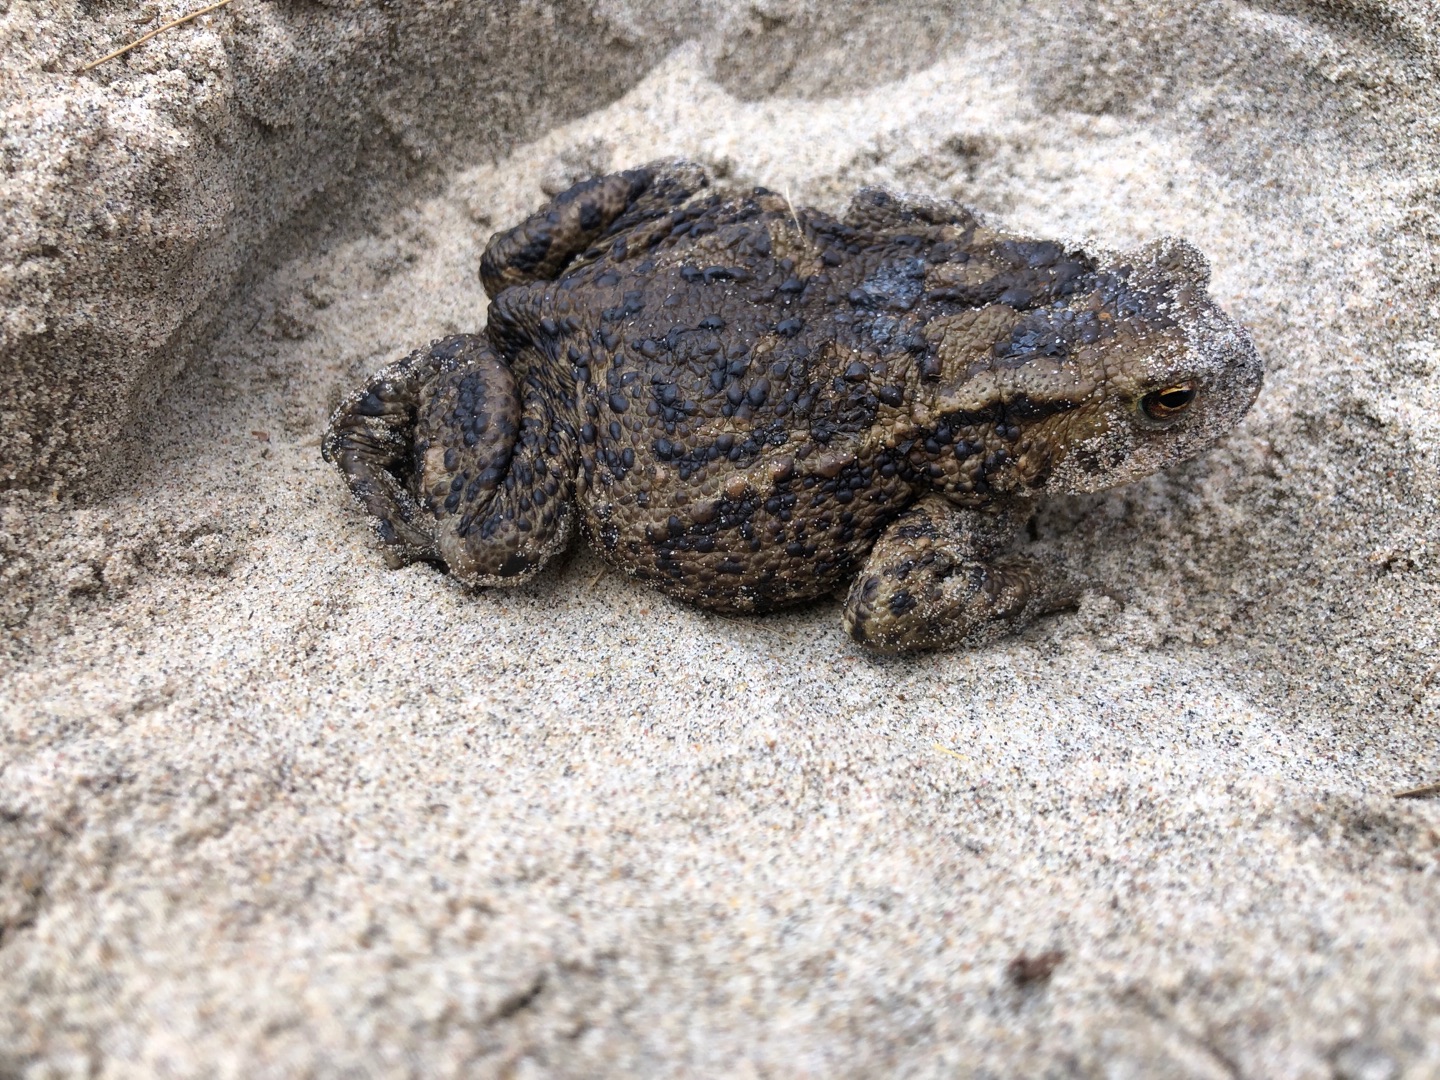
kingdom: Animalia
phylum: Chordata
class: Amphibia
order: Anura
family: Bufonidae
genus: Bufo
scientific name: Bufo bufo
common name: Skrubtudse
